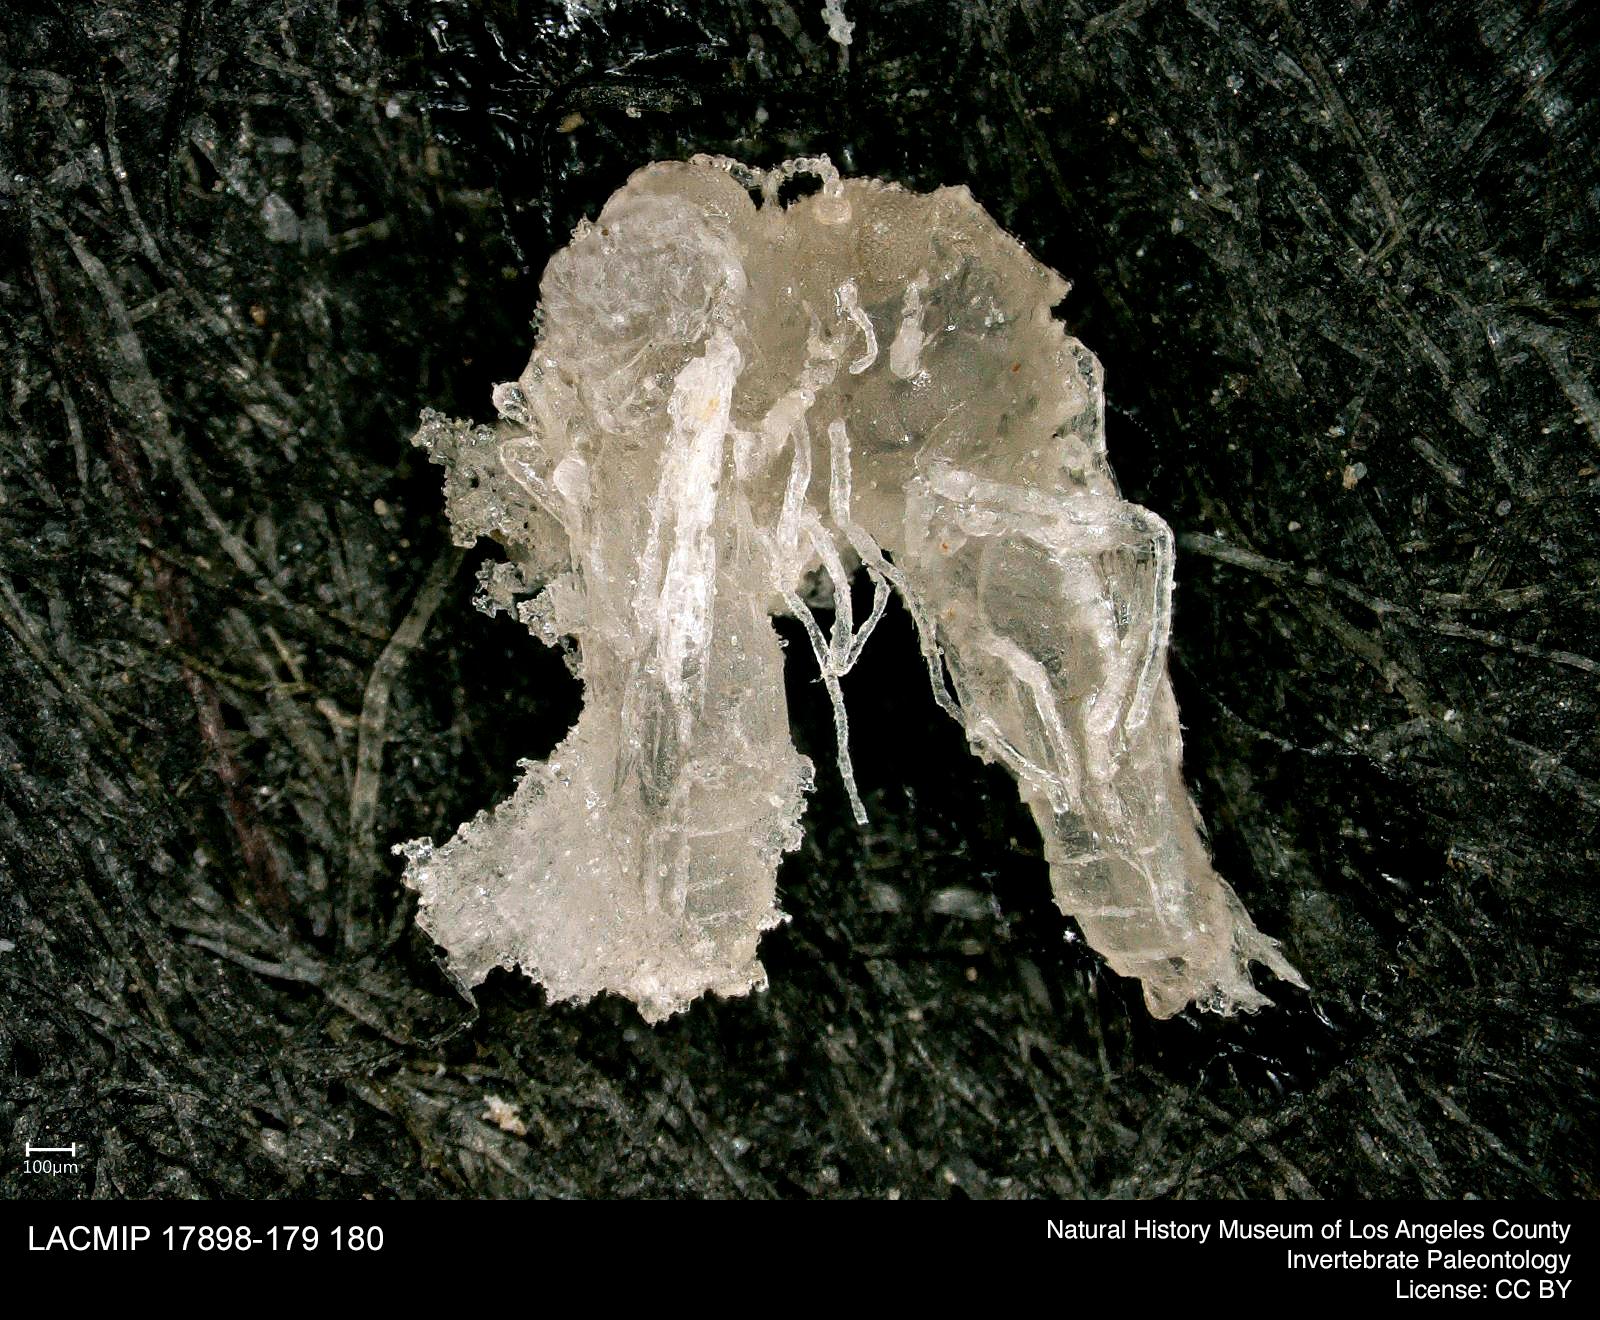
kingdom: Animalia
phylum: Arthropoda
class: Insecta
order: Diptera
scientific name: Diptera
